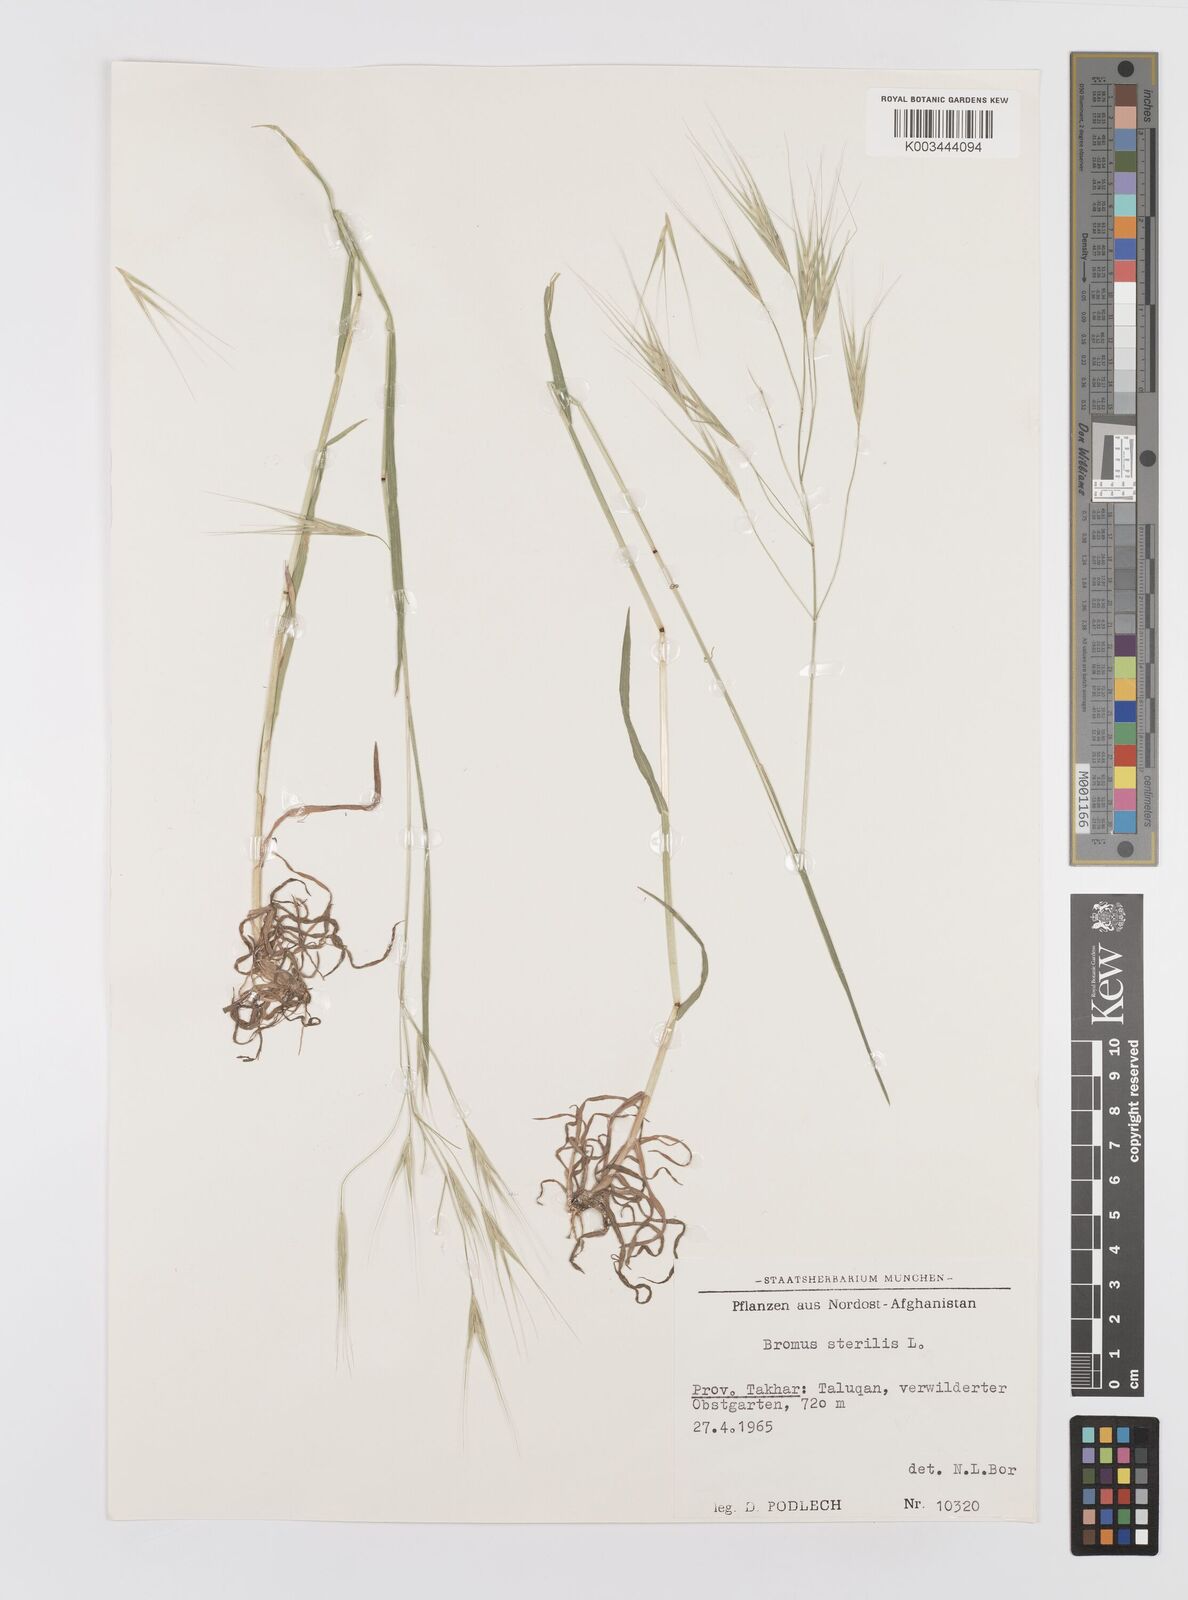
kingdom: Plantae
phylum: Tracheophyta
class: Liliopsida
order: Poales
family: Poaceae
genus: Bromus
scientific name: Bromus sterilis
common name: Poverty brome
